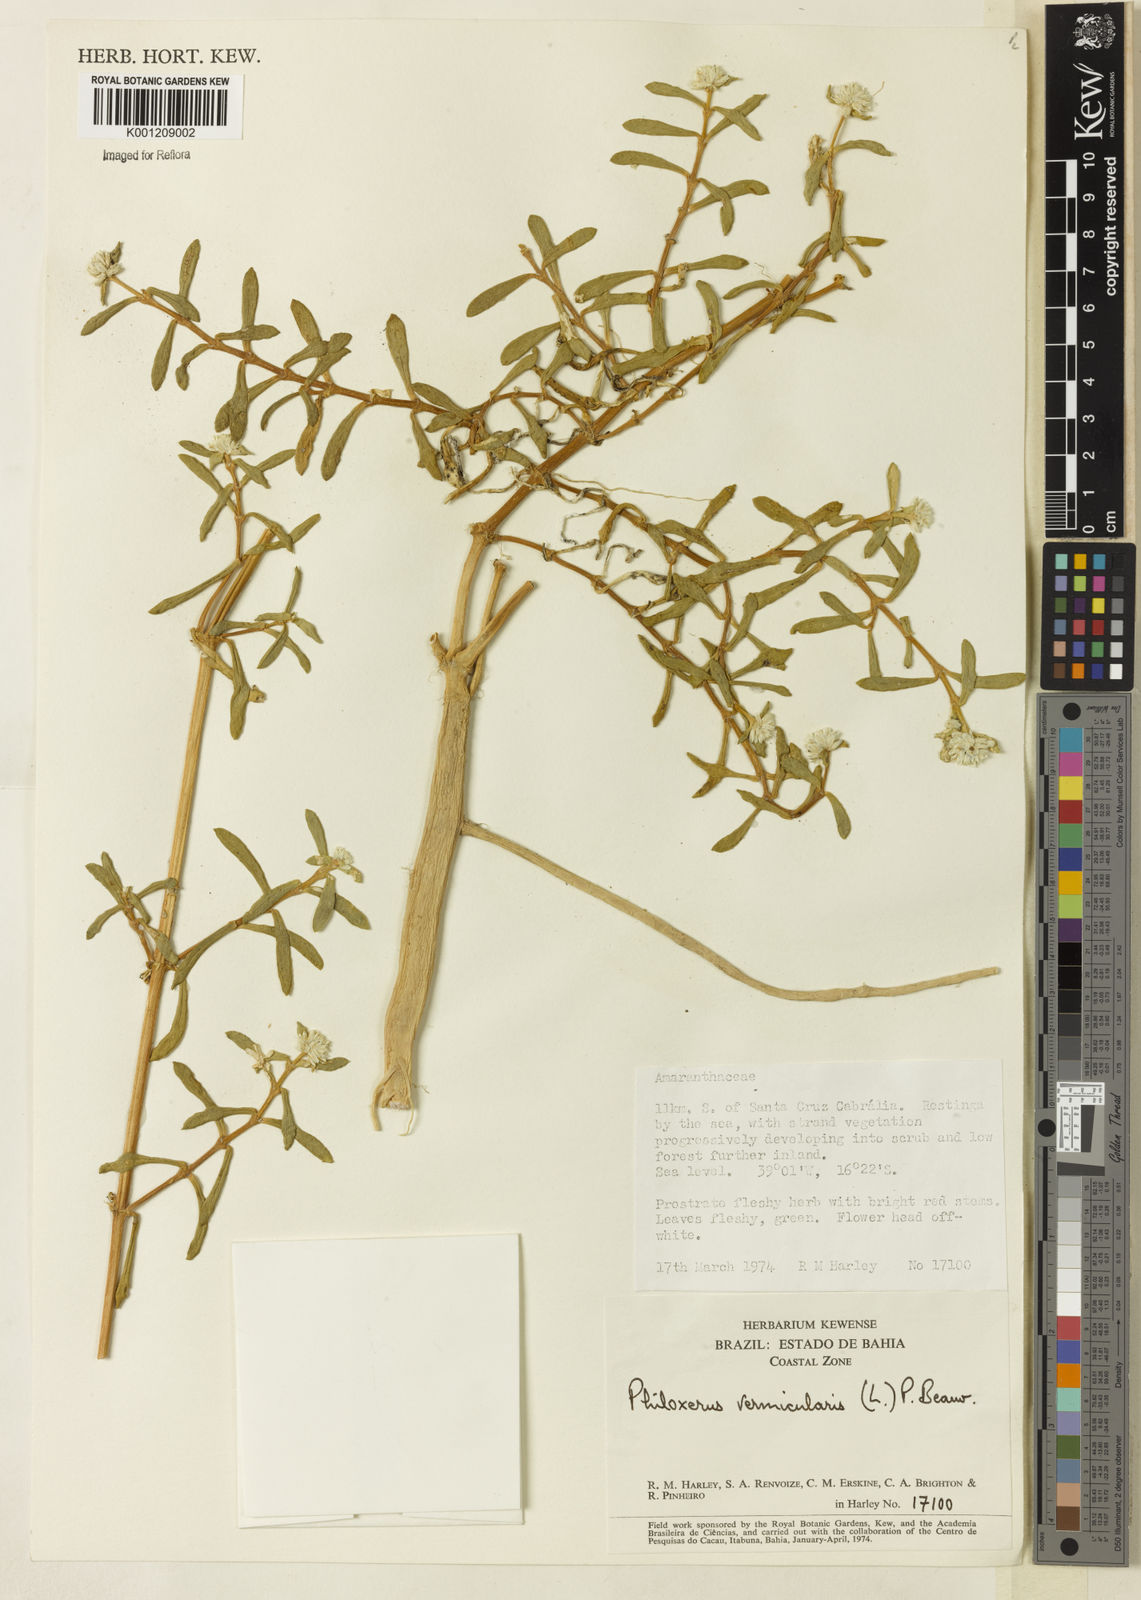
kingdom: Plantae
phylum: Tracheophyta
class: Magnoliopsida
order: Caryophyllales
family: Amaranthaceae
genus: Gomphrena
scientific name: Gomphrena vermicularis
